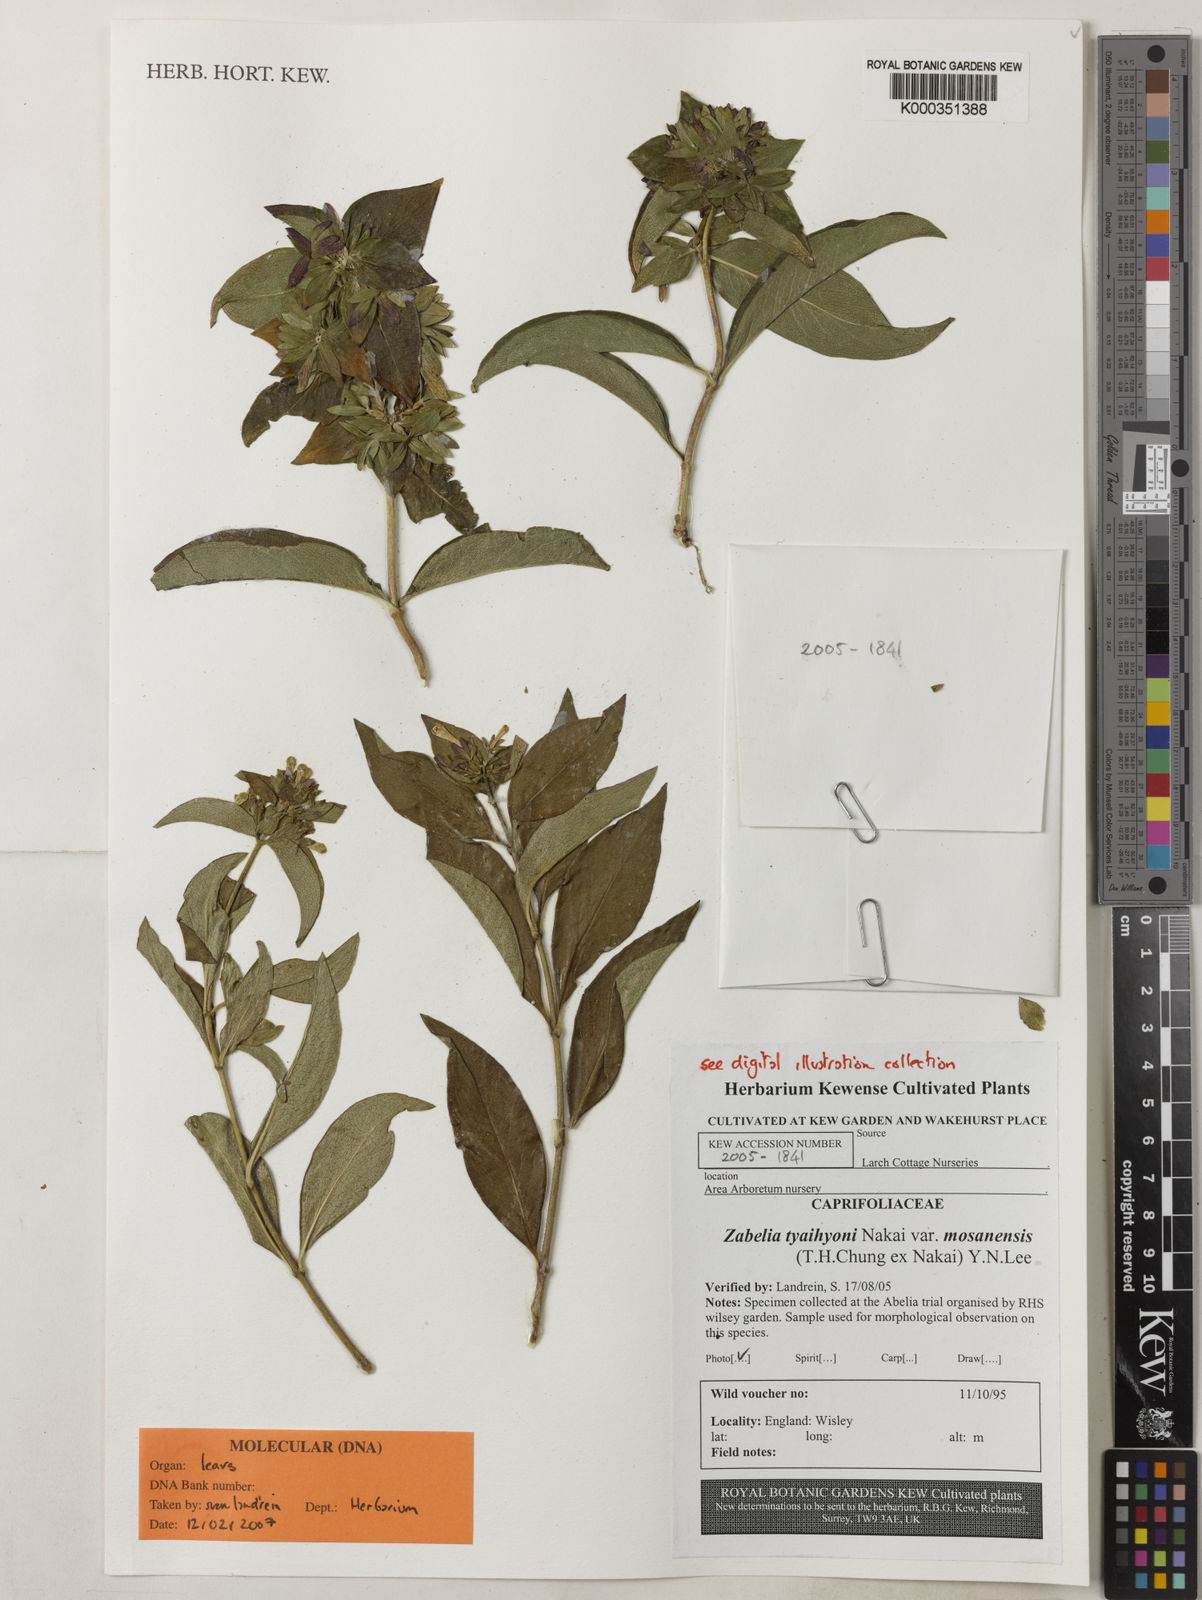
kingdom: Plantae
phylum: Tracheophyta
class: Magnoliopsida
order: Dipsacales
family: Caprifoliaceae
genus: Zabelia
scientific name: Zabelia tyaihyoni
